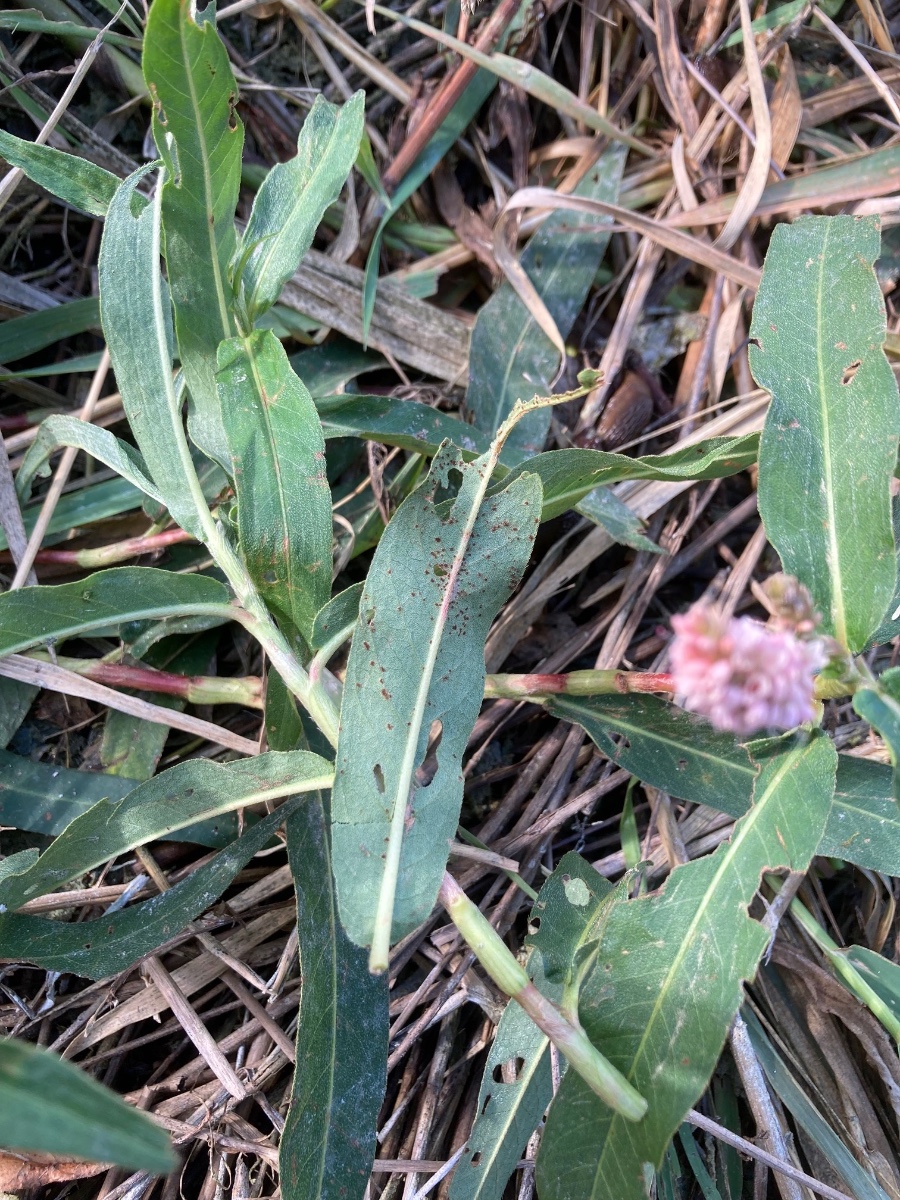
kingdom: Fungi
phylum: Basidiomycota
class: Pucciniomycetes
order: Pucciniales
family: Pucciniaceae
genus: Puccinia
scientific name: Puccinia polygoni-amphibii
